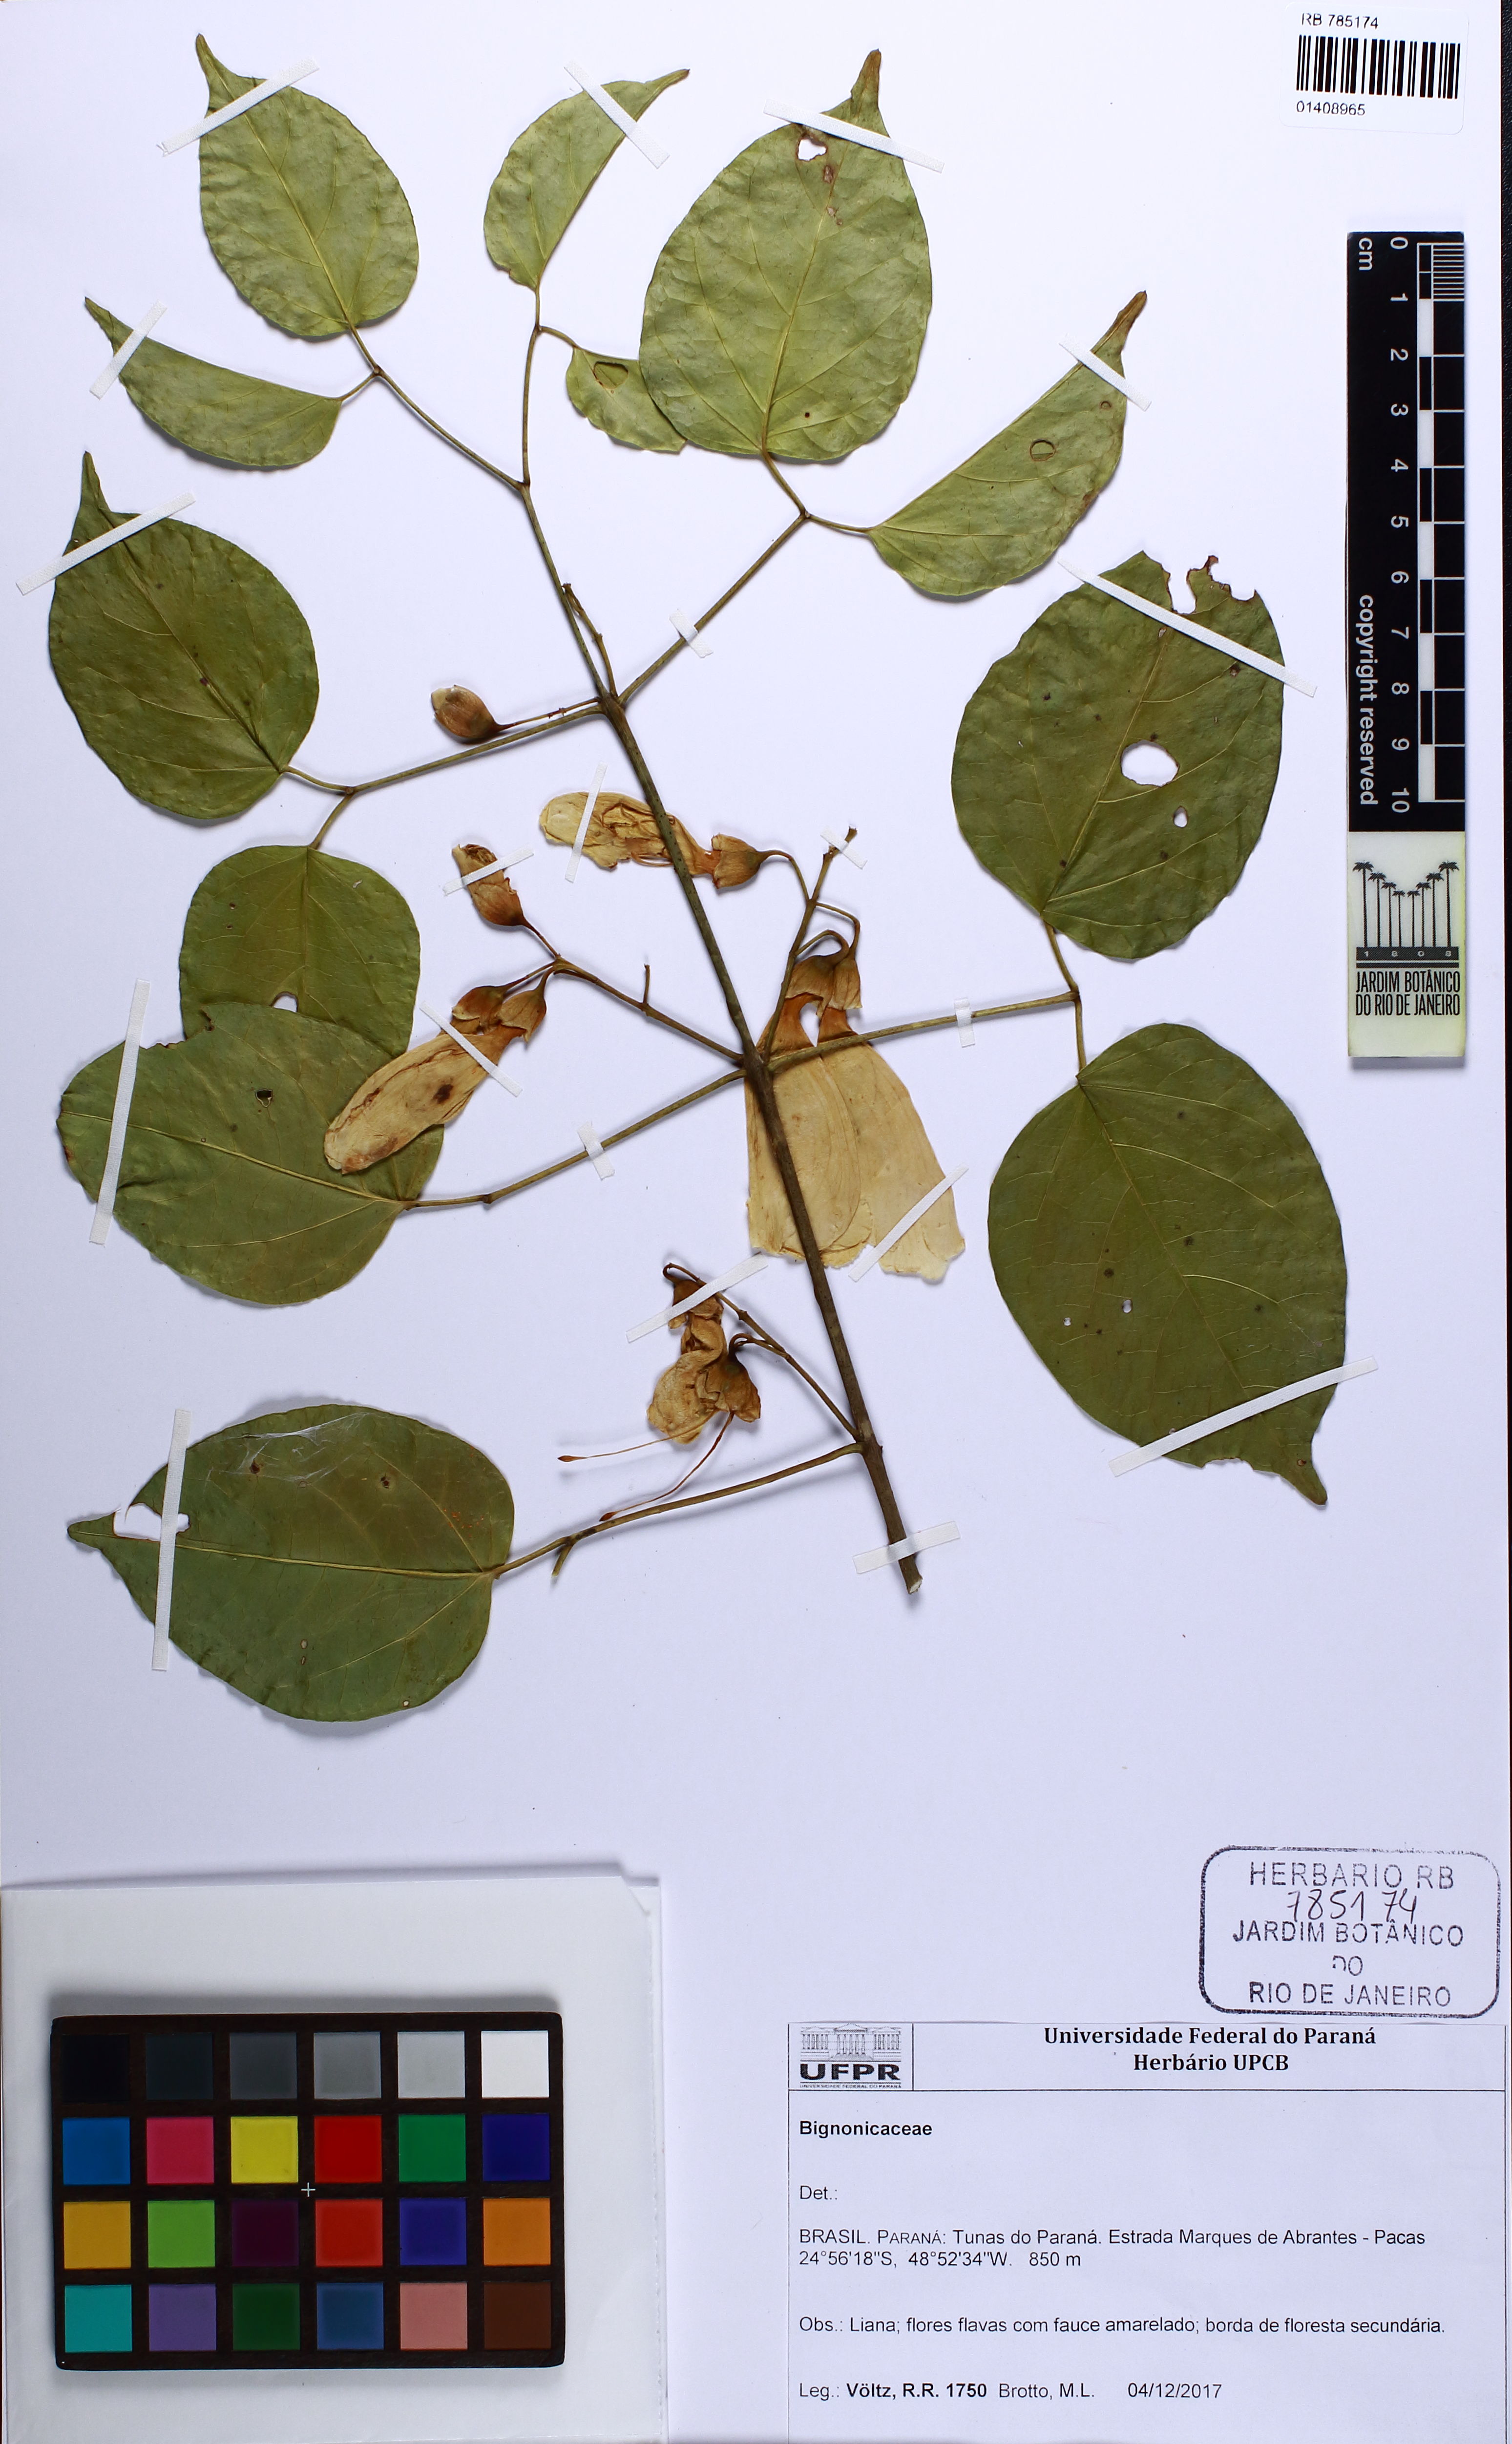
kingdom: Plantae
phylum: Tracheophyta
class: Magnoliopsida
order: Lamiales
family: Bignoniaceae
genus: Anemopaegma
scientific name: Anemopaegma longipetiolatum
